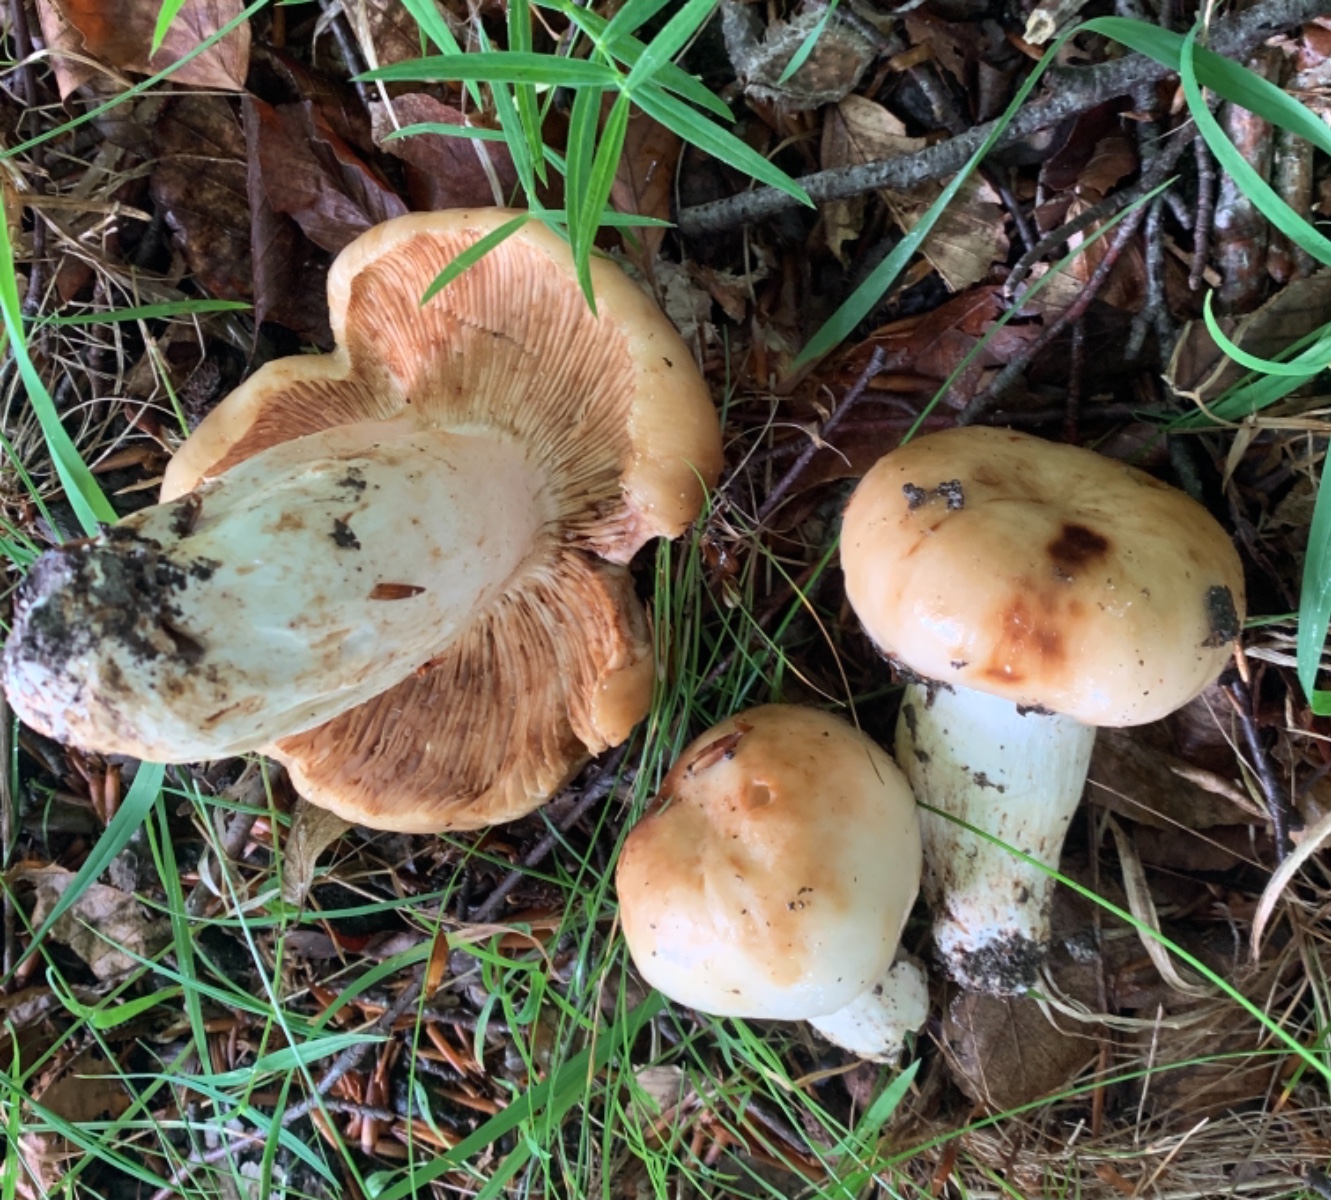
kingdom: Fungi
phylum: Basidiomycota
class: Agaricomycetes
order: Russulales
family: Russulaceae
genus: Russula
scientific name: Russula foetens
